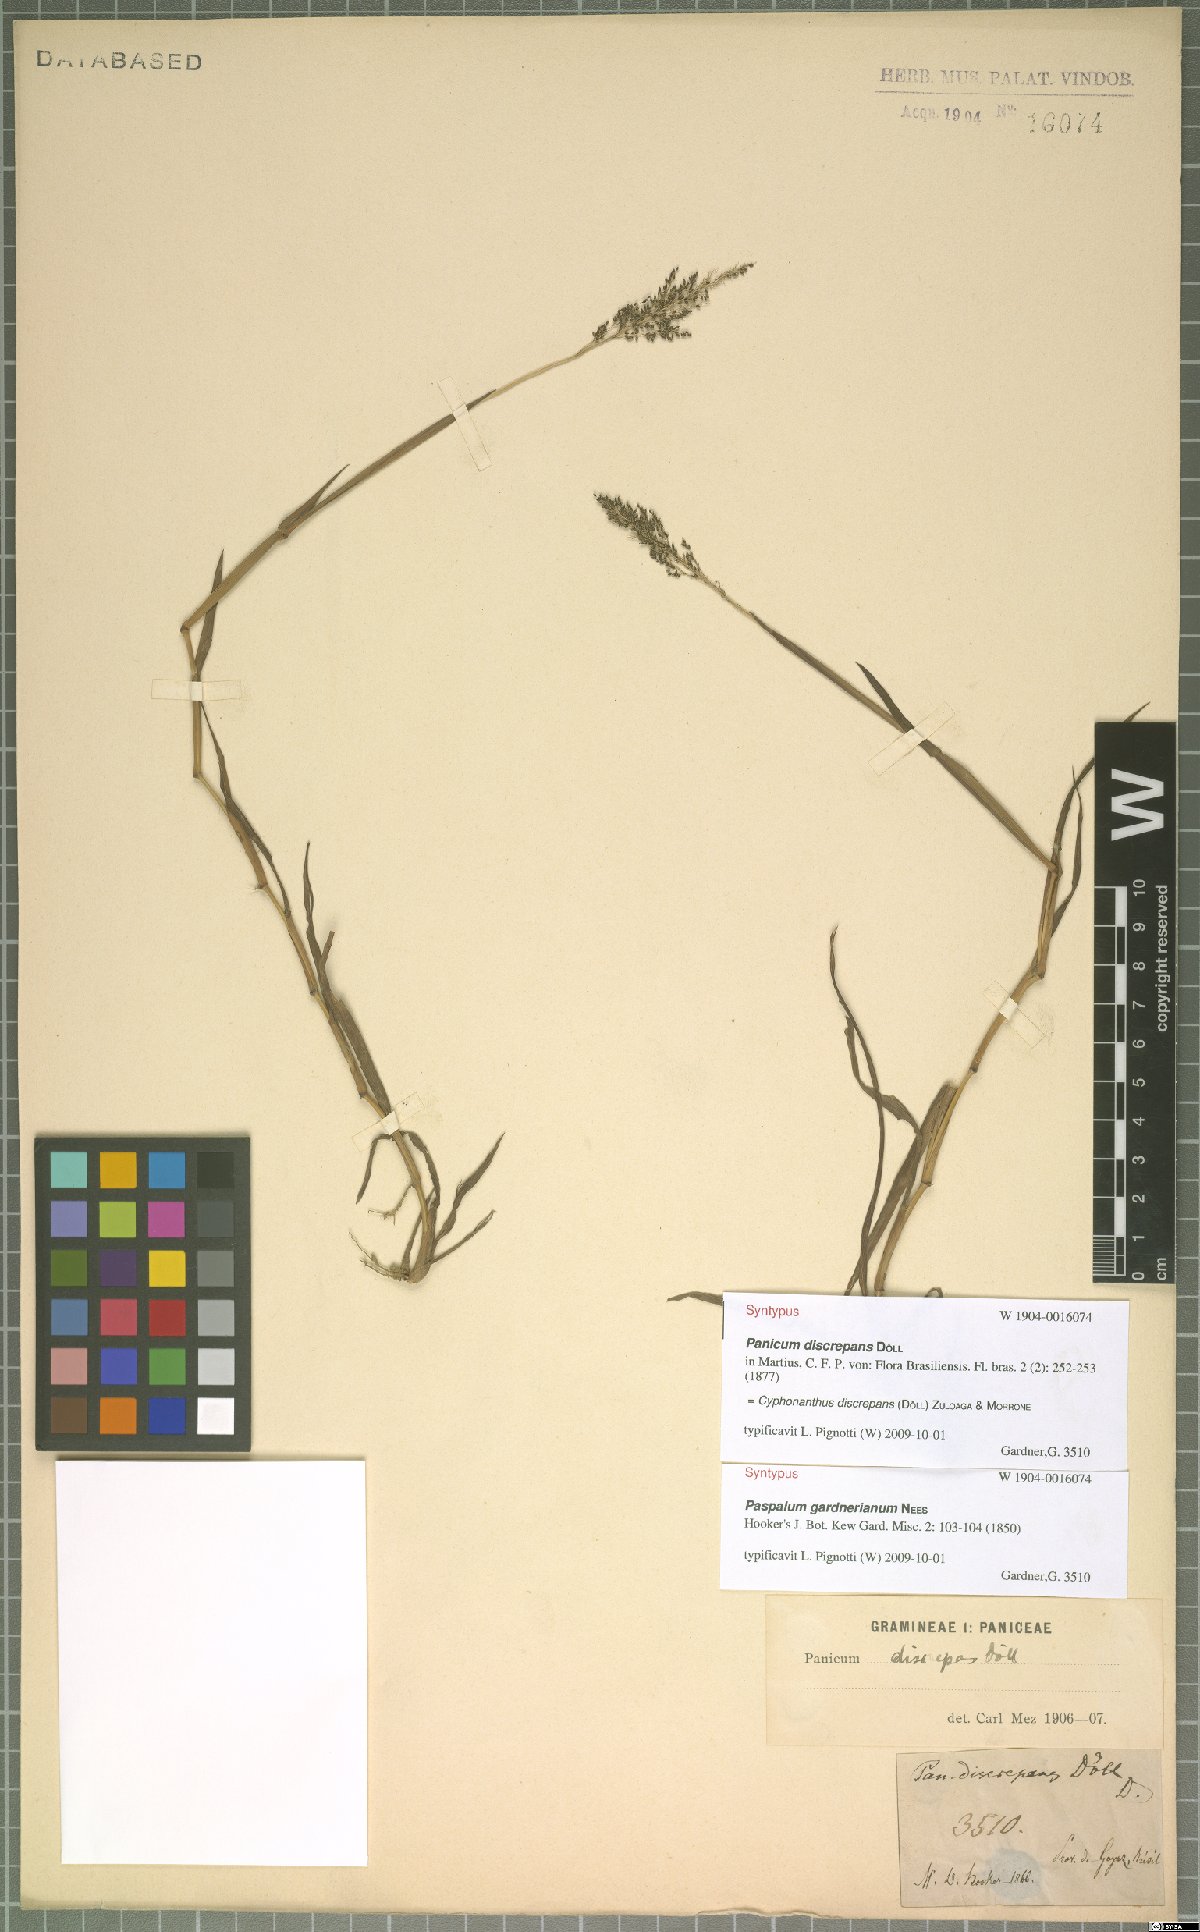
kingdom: Plantae
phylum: Tracheophyta
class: Liliopsida
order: Poales
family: Poaceae
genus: Cyphonanthus
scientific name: Cyphonanthus discrepans
